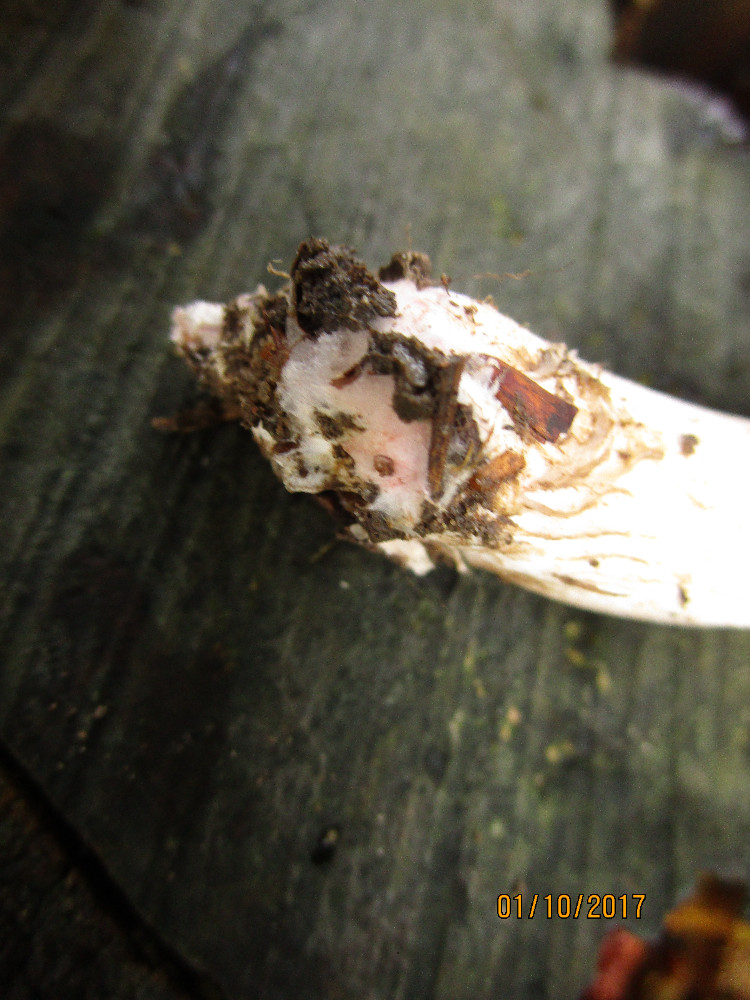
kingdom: Fungi
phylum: Basidiomycota
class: Agaricomycetes
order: Agaricales
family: Tricholomataceae
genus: Tricholoma
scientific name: Tricholoma basirubens
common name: rødfodet ridderhat
